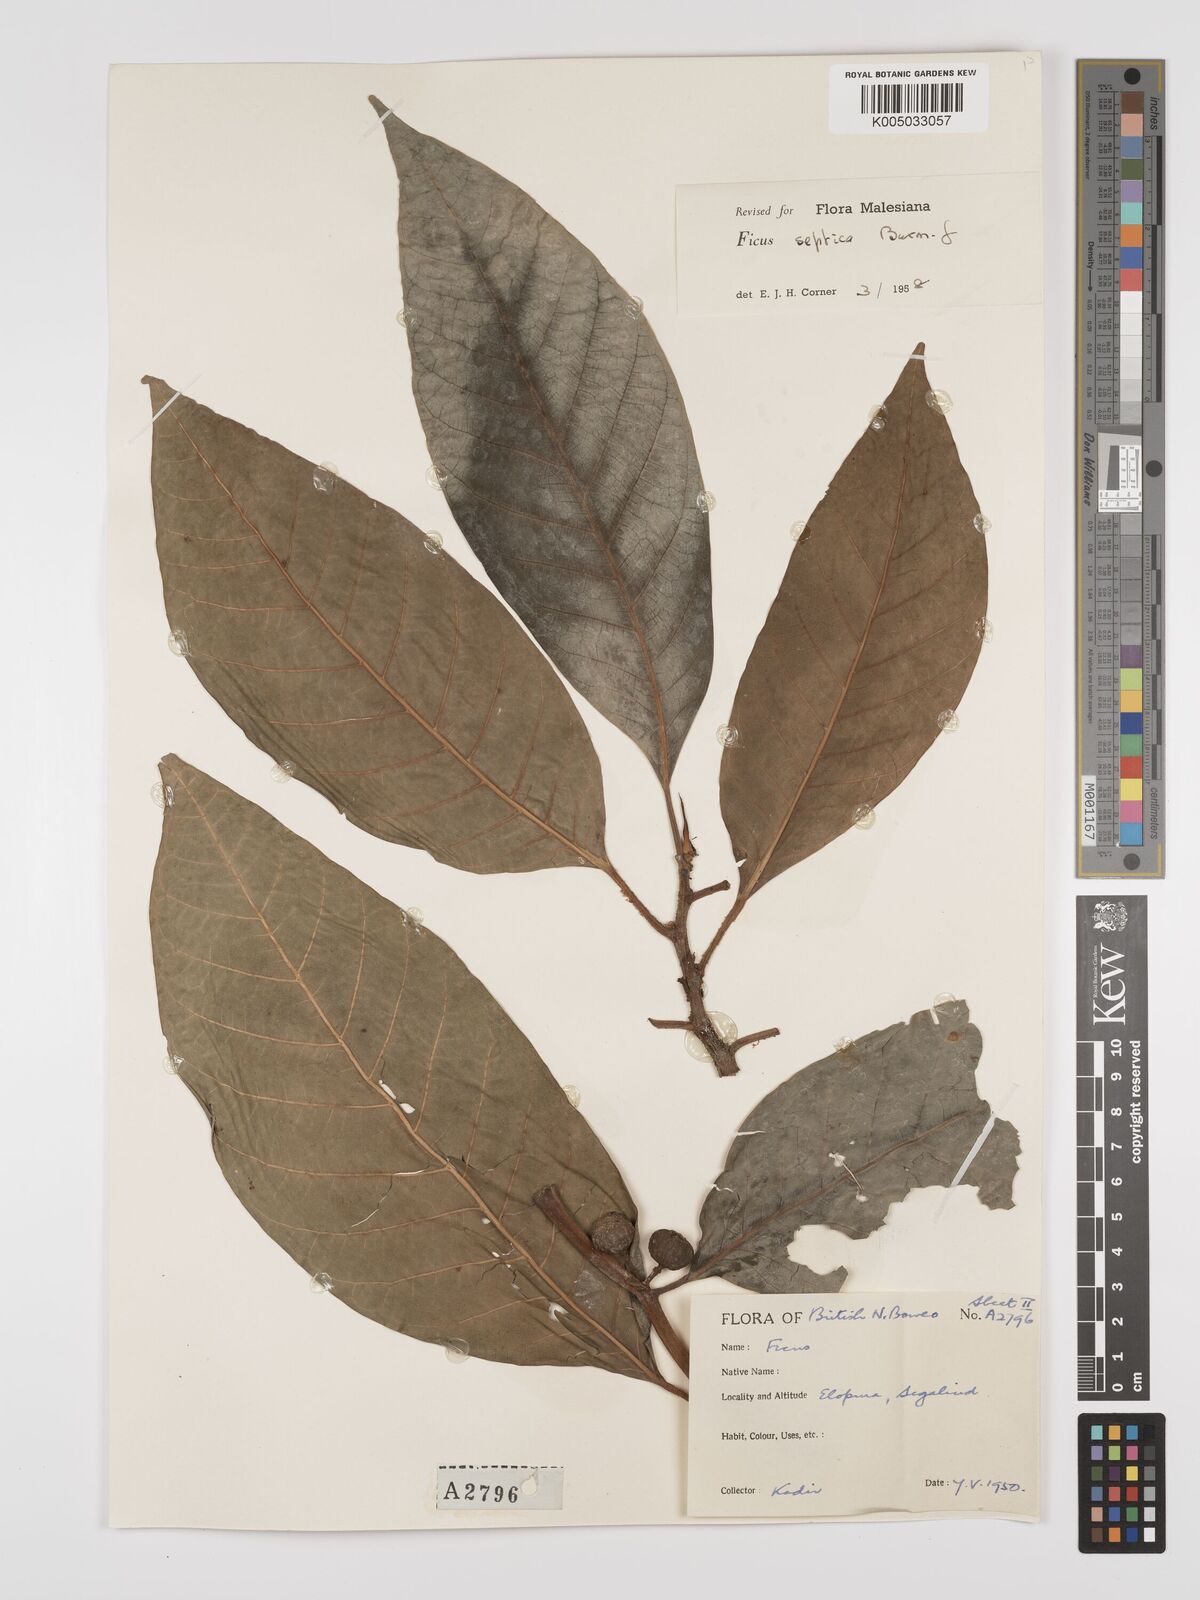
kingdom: Plantae
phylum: Tracheophyta
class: Magnoliopsida
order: Rosales
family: Moraceae
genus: Ficus
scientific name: Ficus septica
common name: Septic fig
